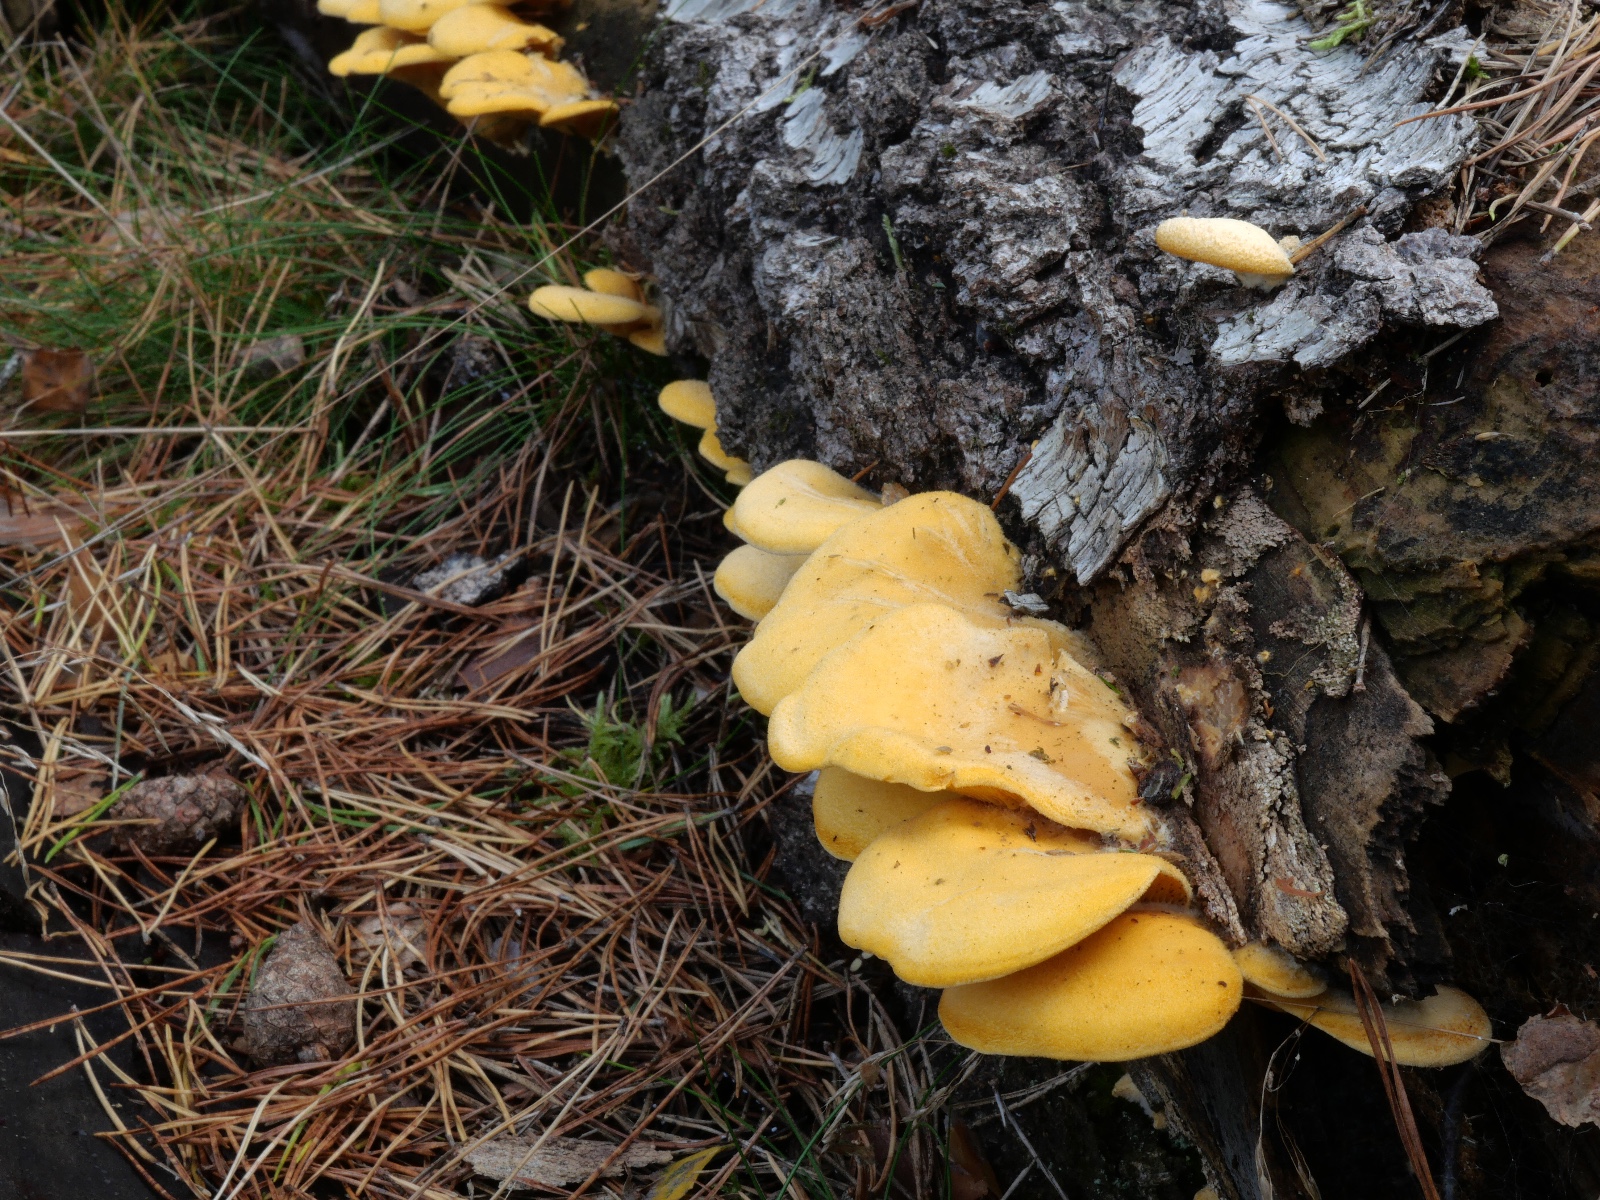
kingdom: Fungi
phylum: Basidiomycota
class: Agaricomycetes
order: Agaricales
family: Phyllotopsidaceae
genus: Phyllotopsis
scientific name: Phyllotopsis nidulans
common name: okkerblad
